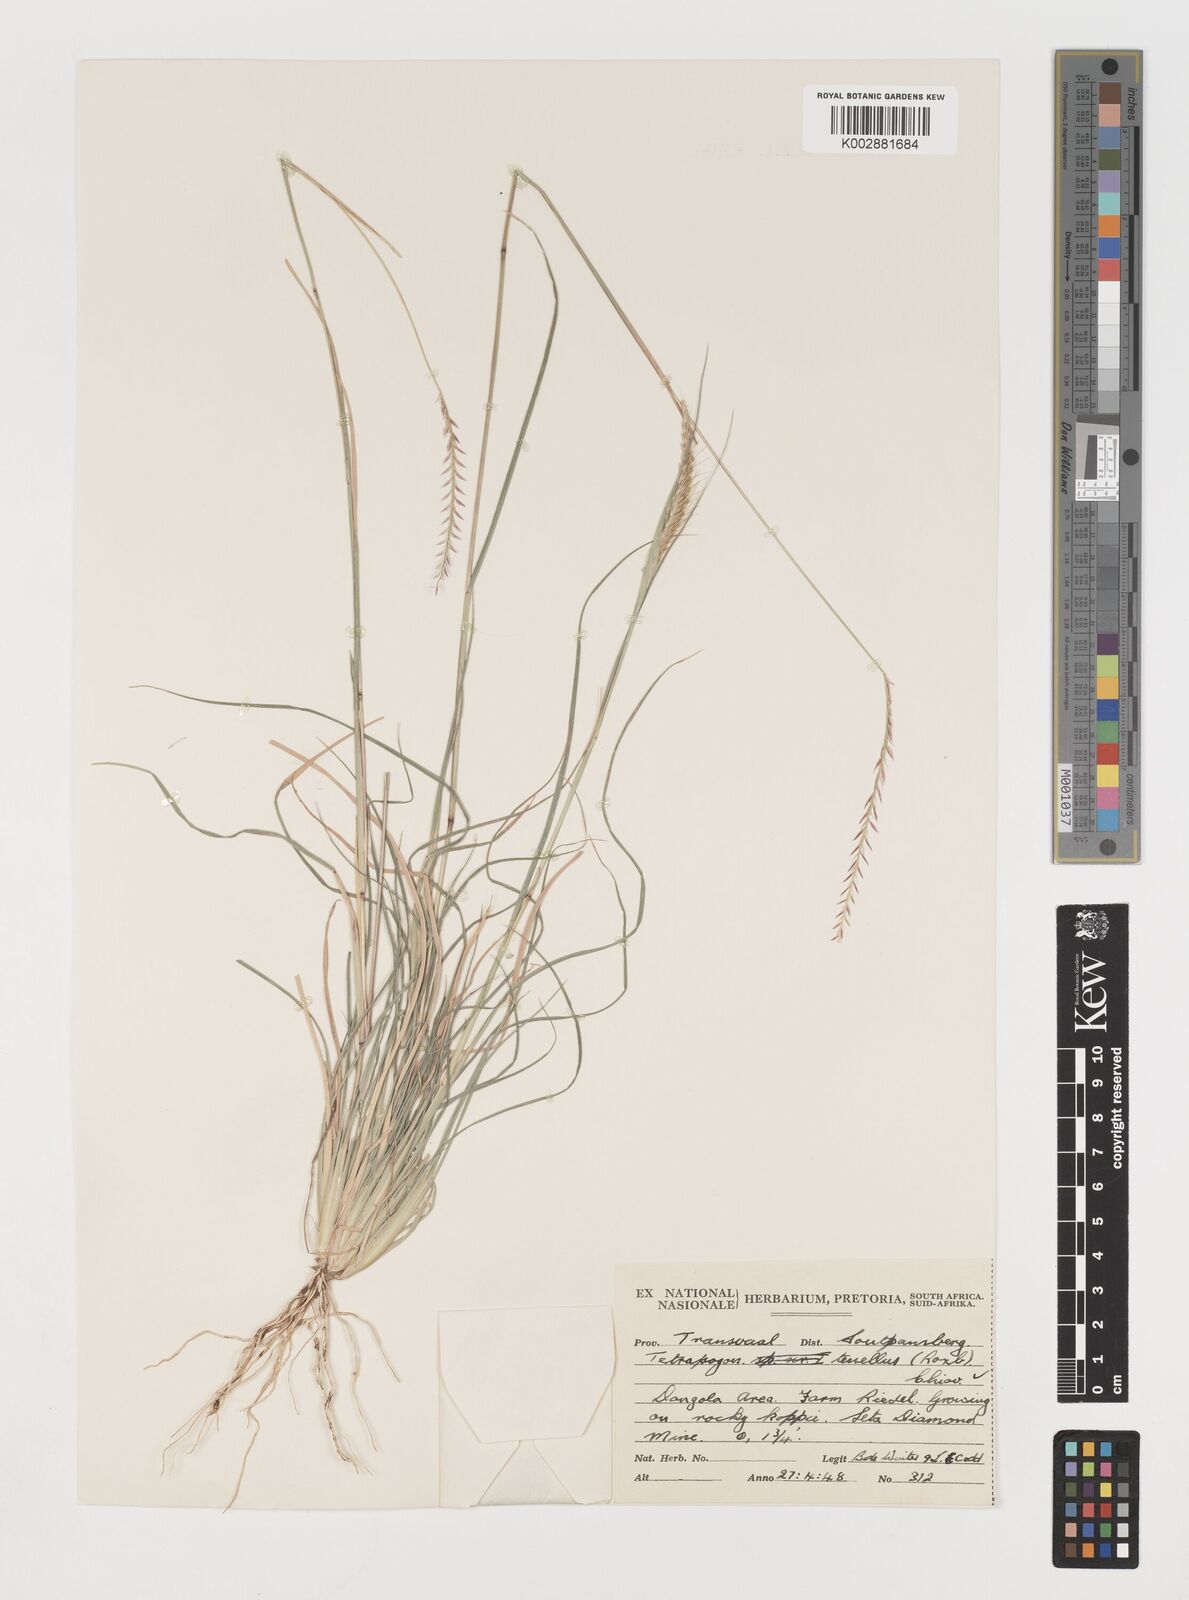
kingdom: Plantae
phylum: Tracheophyta
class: Liliopsida
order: Poales
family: Poaceae
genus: Tetrapogon
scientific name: Tetrapogon tenellus
